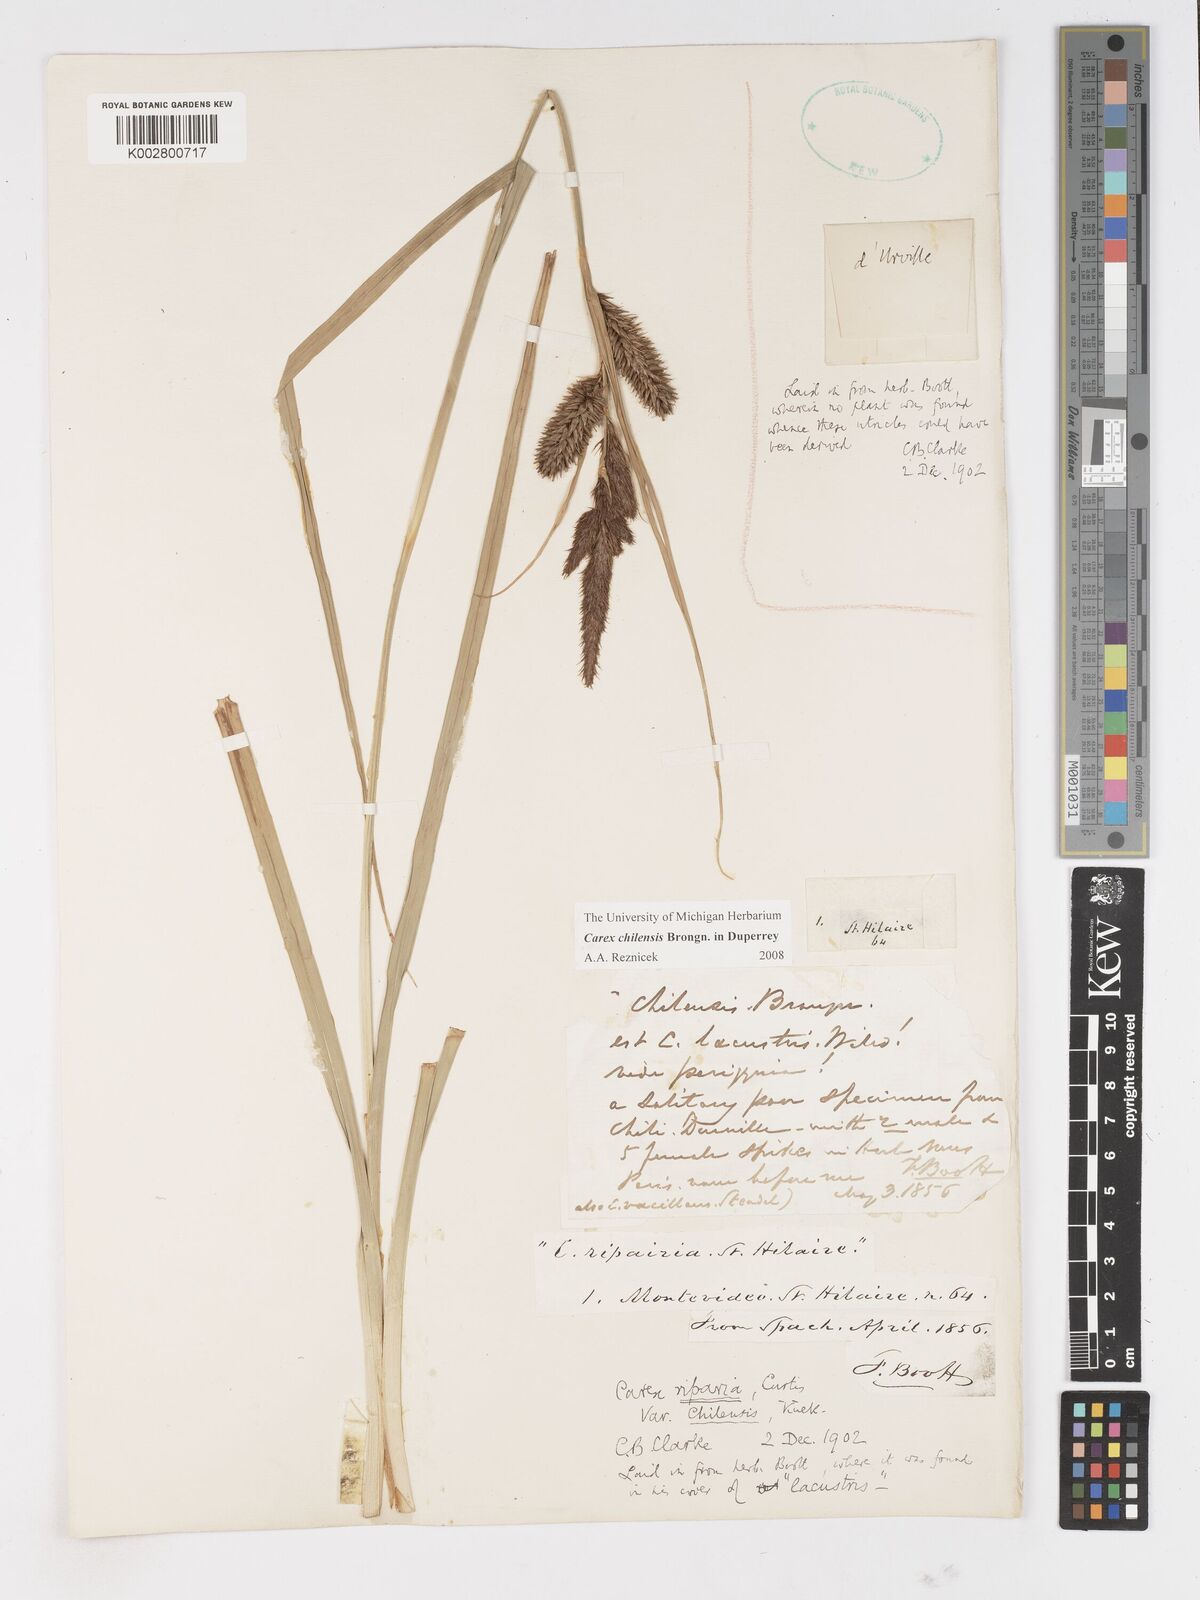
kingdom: Plantae
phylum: Tracheophyta
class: Liliopsida
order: Poales
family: Cyperaceae
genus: Carex
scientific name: Carex chilensis
